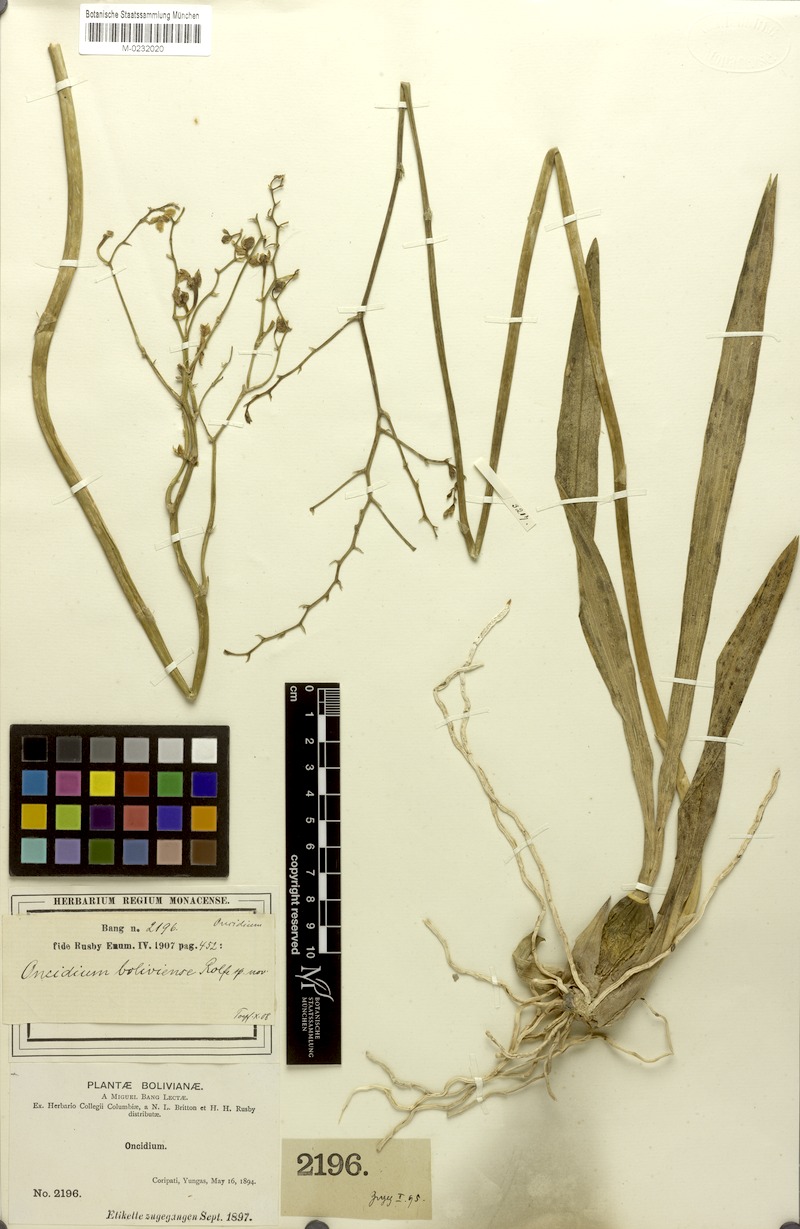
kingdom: Plantae
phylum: Tracheophyta
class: Liliopsida
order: Asparagales
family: Orchidaceae
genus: Gomesa
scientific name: Gomesa ramosa
